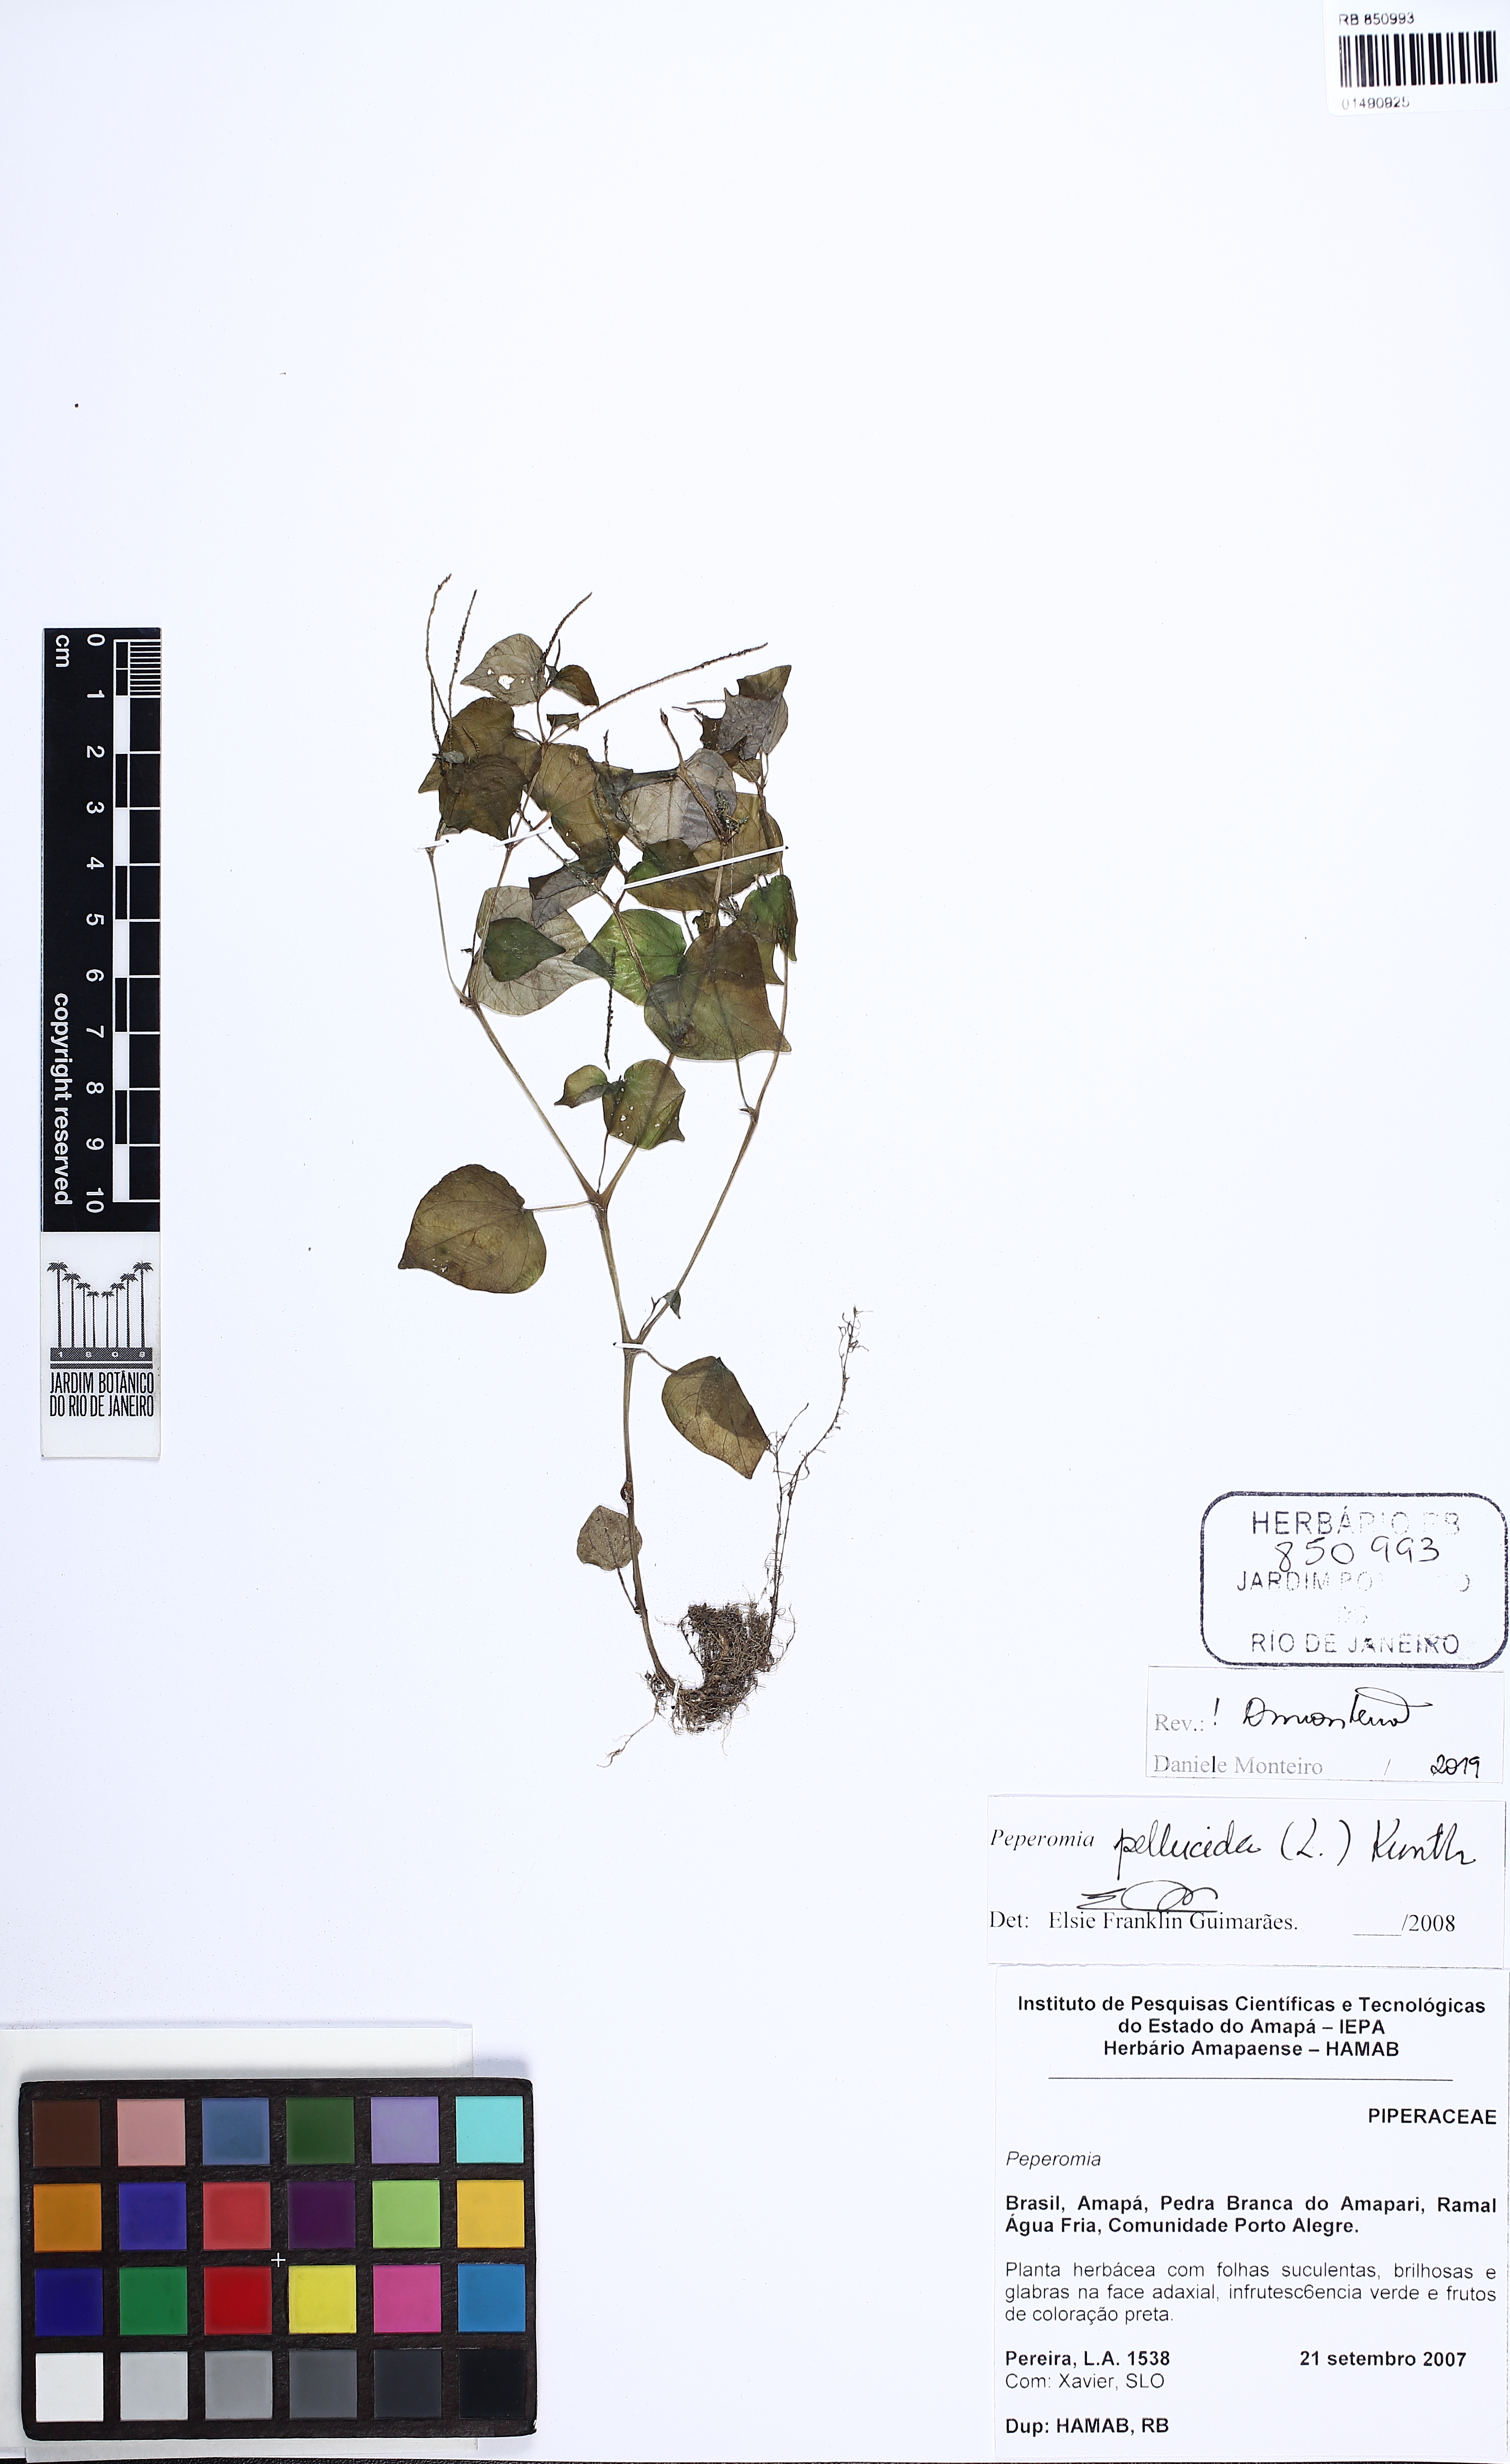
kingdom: Plantae
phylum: Tracheophyta
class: Magnoliopsida
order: Piperales
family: Piperaceae
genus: Peperomia
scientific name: Peperomia pellucida
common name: Man to man
